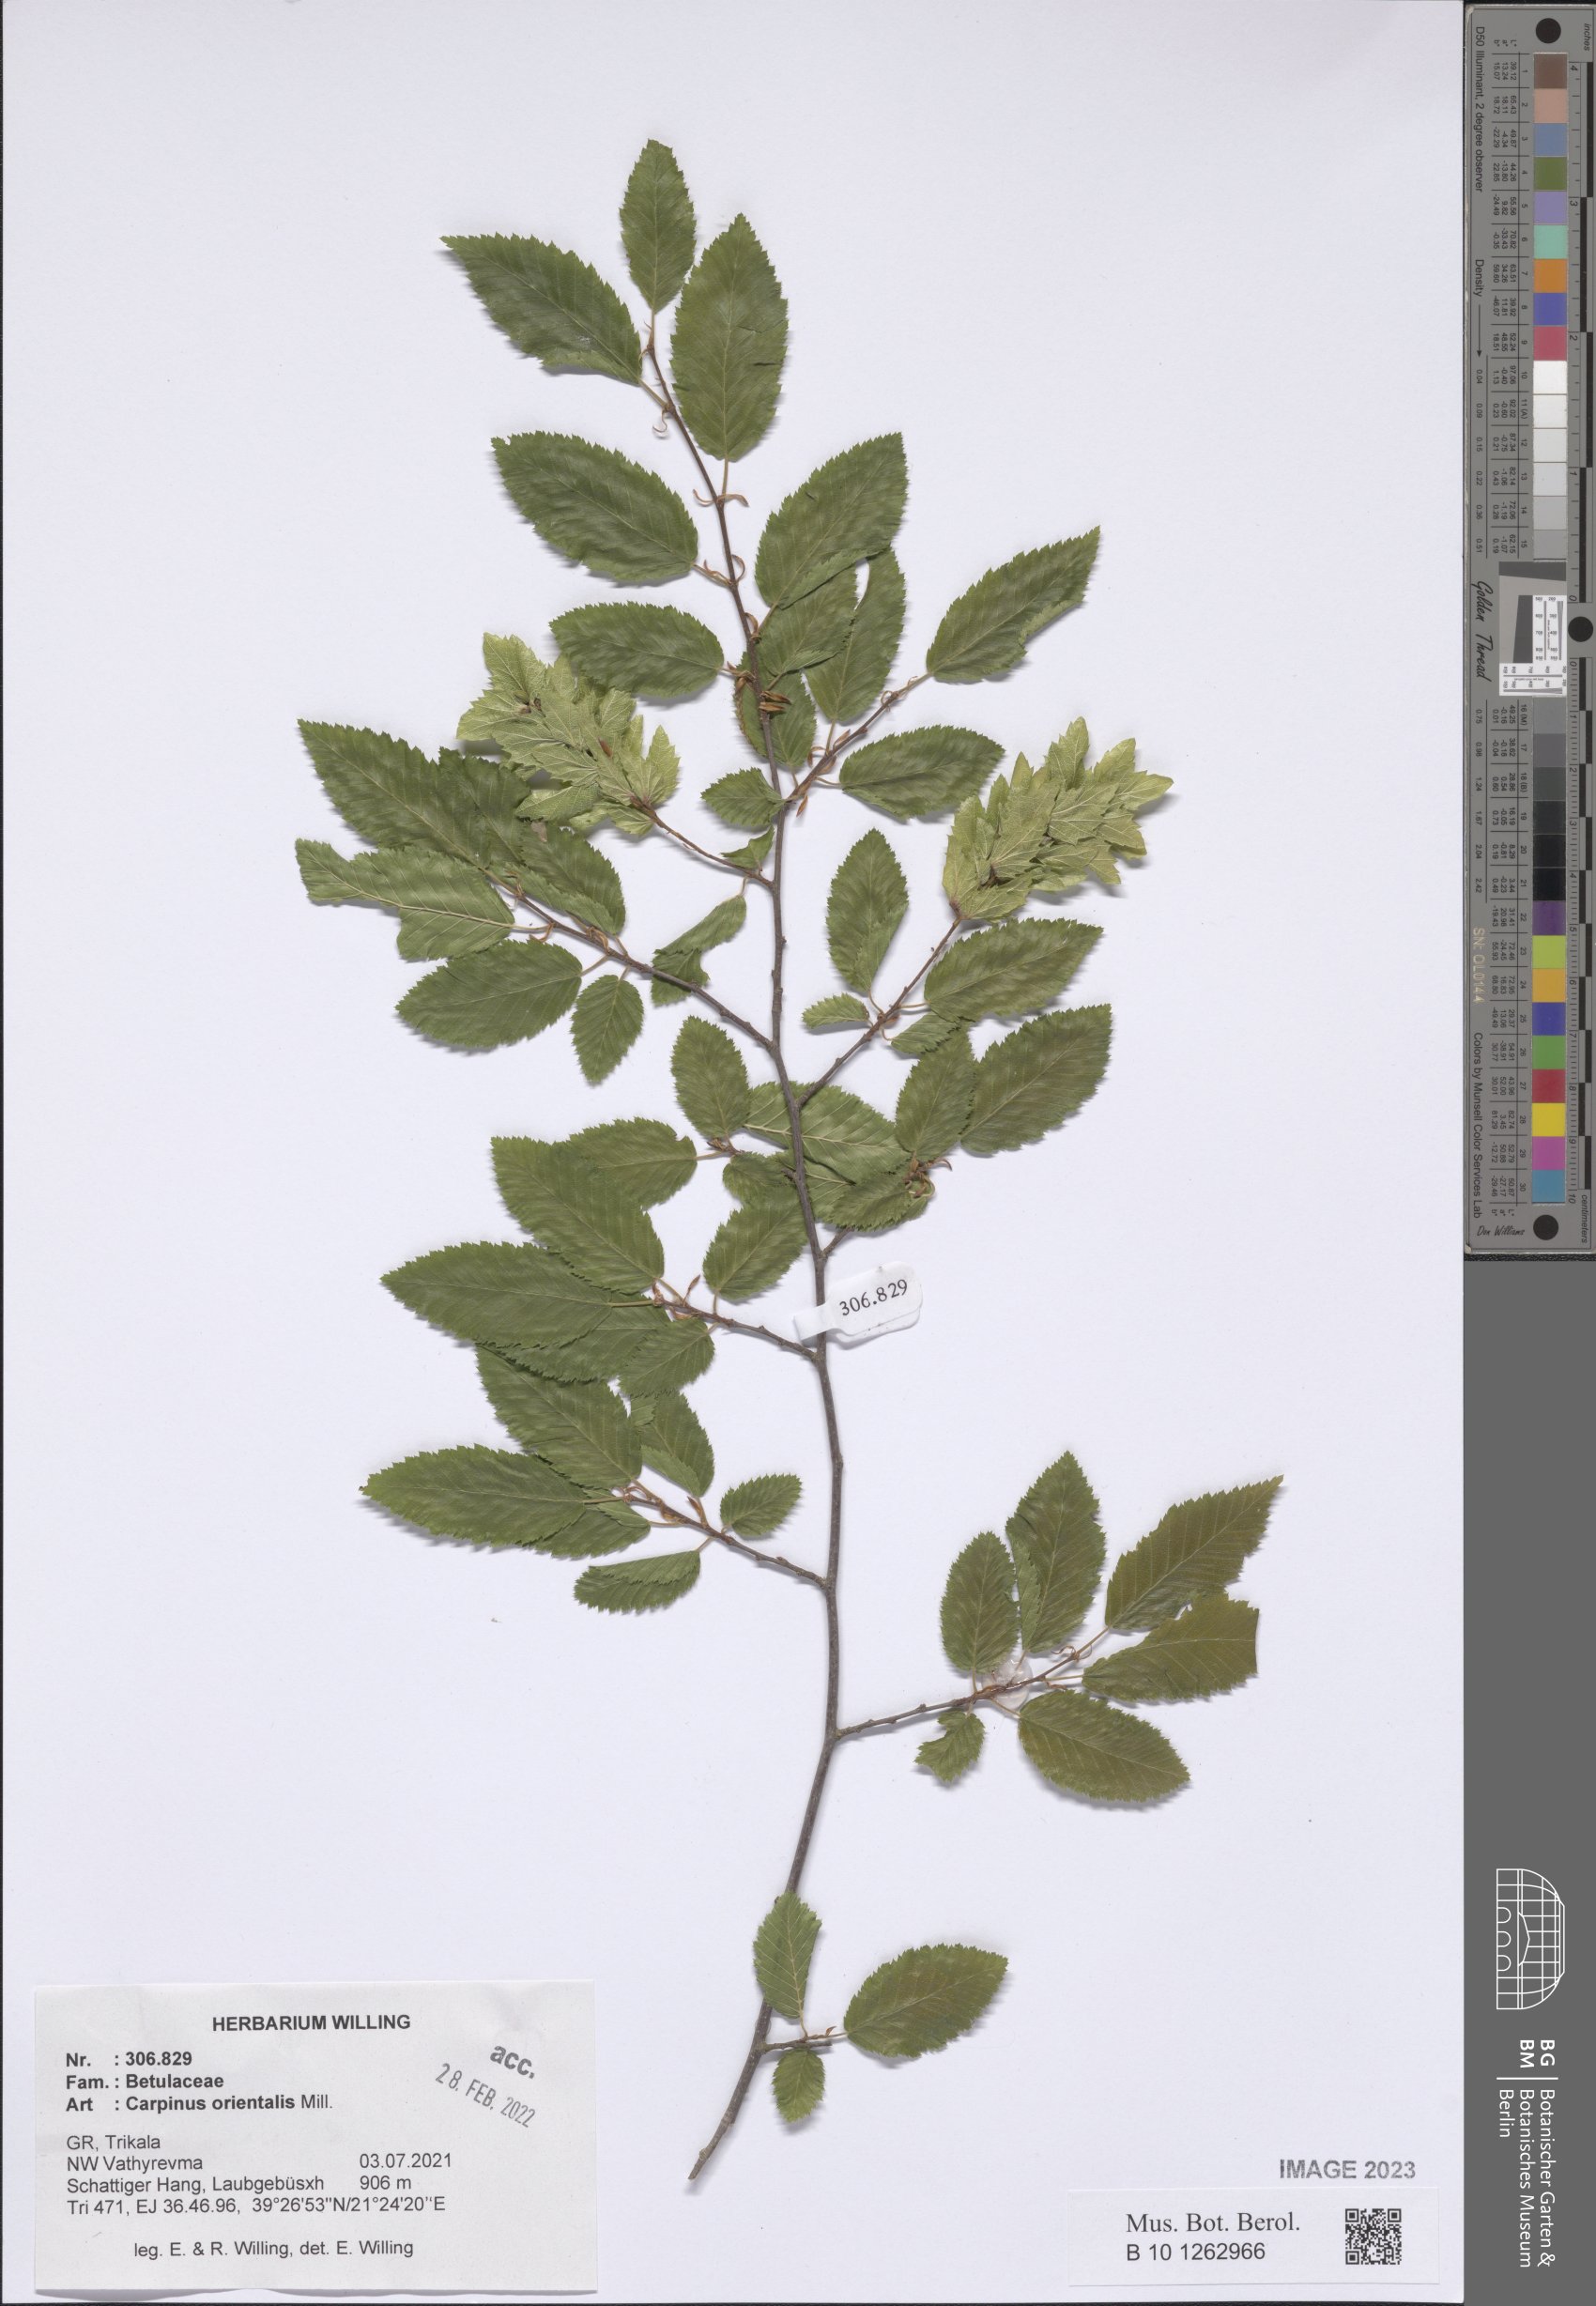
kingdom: Plantae
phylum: Tracheophyta
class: Magnoliopsida
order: Fagales
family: Betulaceae
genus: Carpinus
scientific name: Carpinus orientalis
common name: Eastern hornbeam
